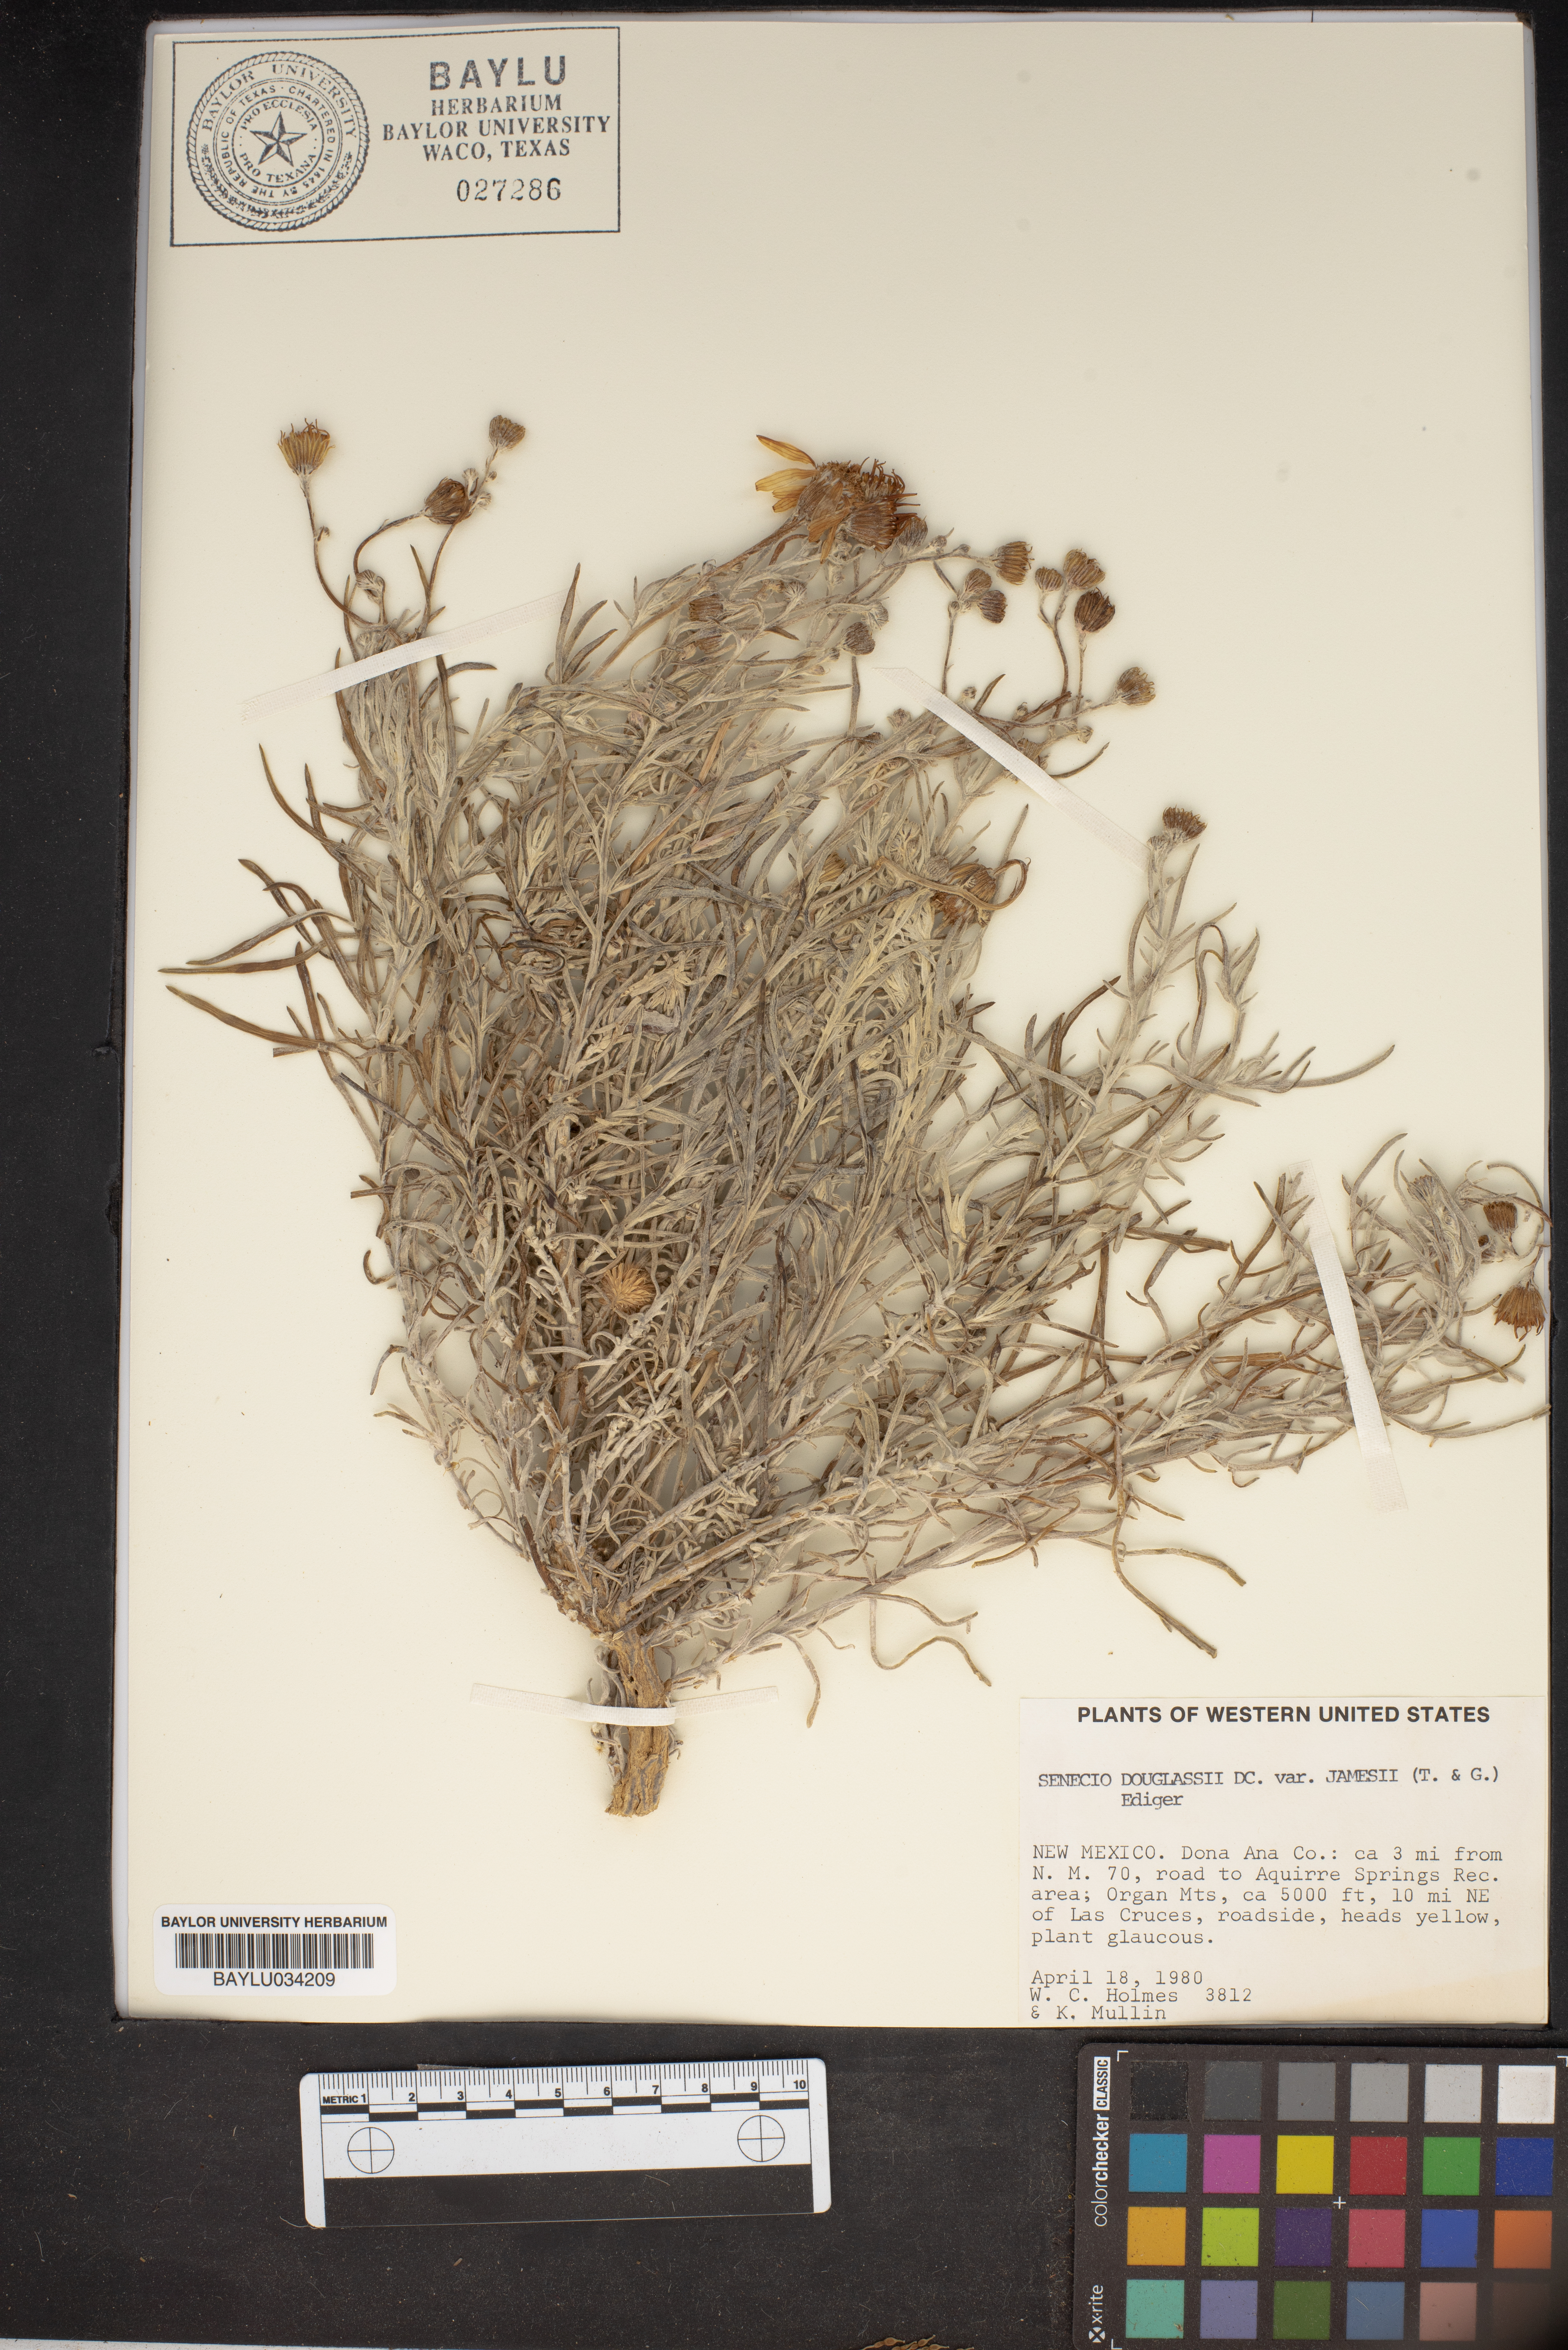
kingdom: Plantae
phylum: Tracheophyta
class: Magnoliopsida
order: Asterales
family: Asteraceae
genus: Senecio
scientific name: Senecio flaccidus
